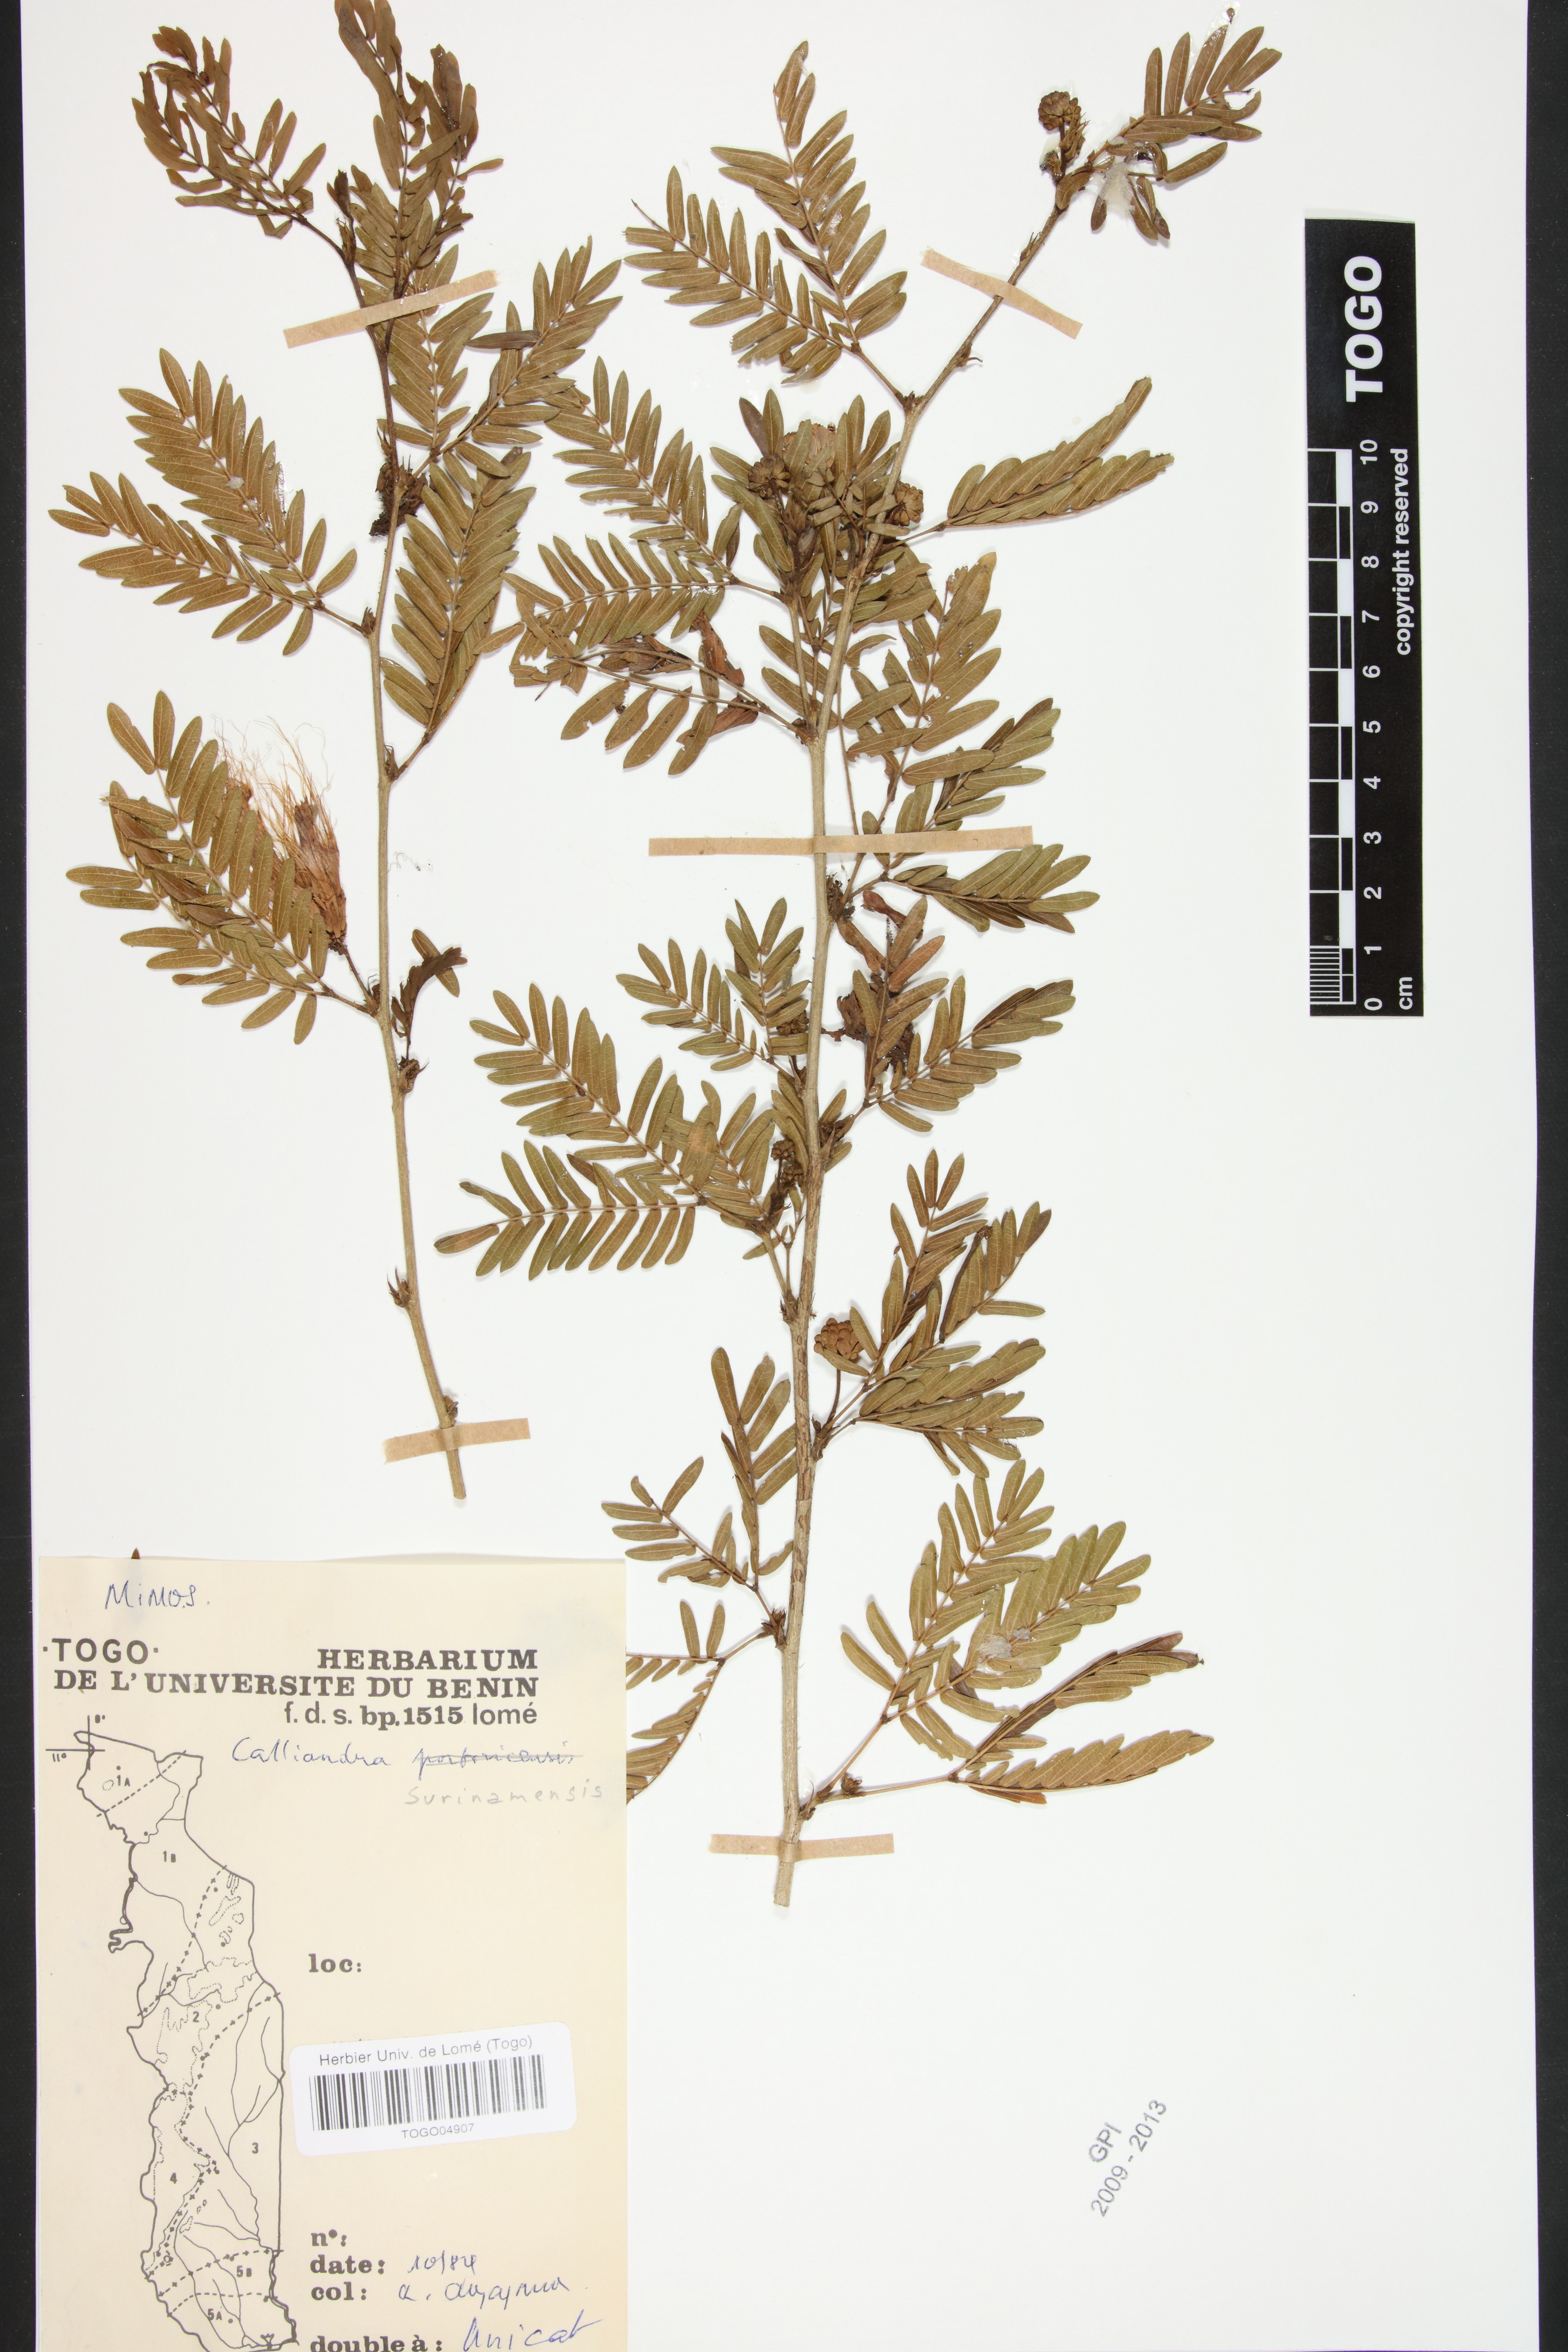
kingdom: Plantae
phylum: Tracheophyta
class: Magnoliopsida
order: Fabales
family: Fabaceae
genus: Zapoteca
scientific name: Zapoteca portoricensis
